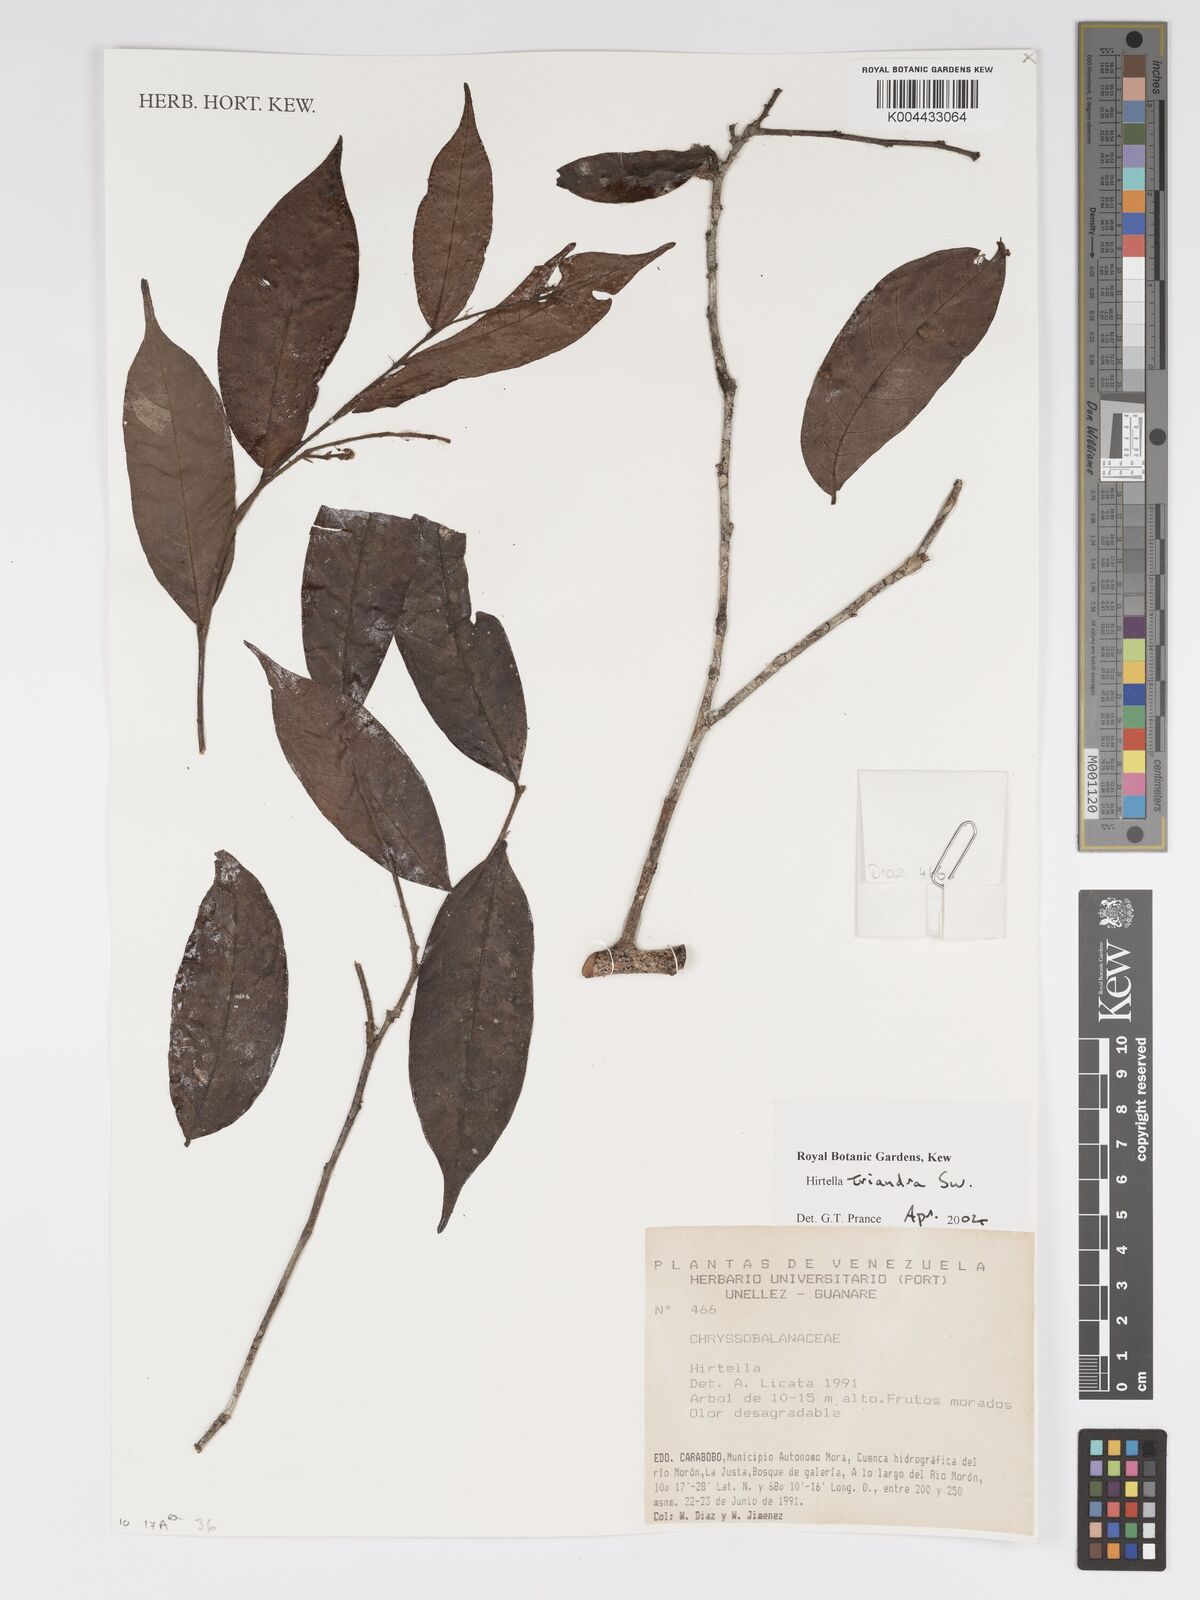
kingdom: Plantae
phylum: Tracheophyta
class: Magnoliopsida
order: Malpighiales
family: Chrysobalanaceae
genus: Hirtella
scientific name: Hirtella triandra
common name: Hairy plum
